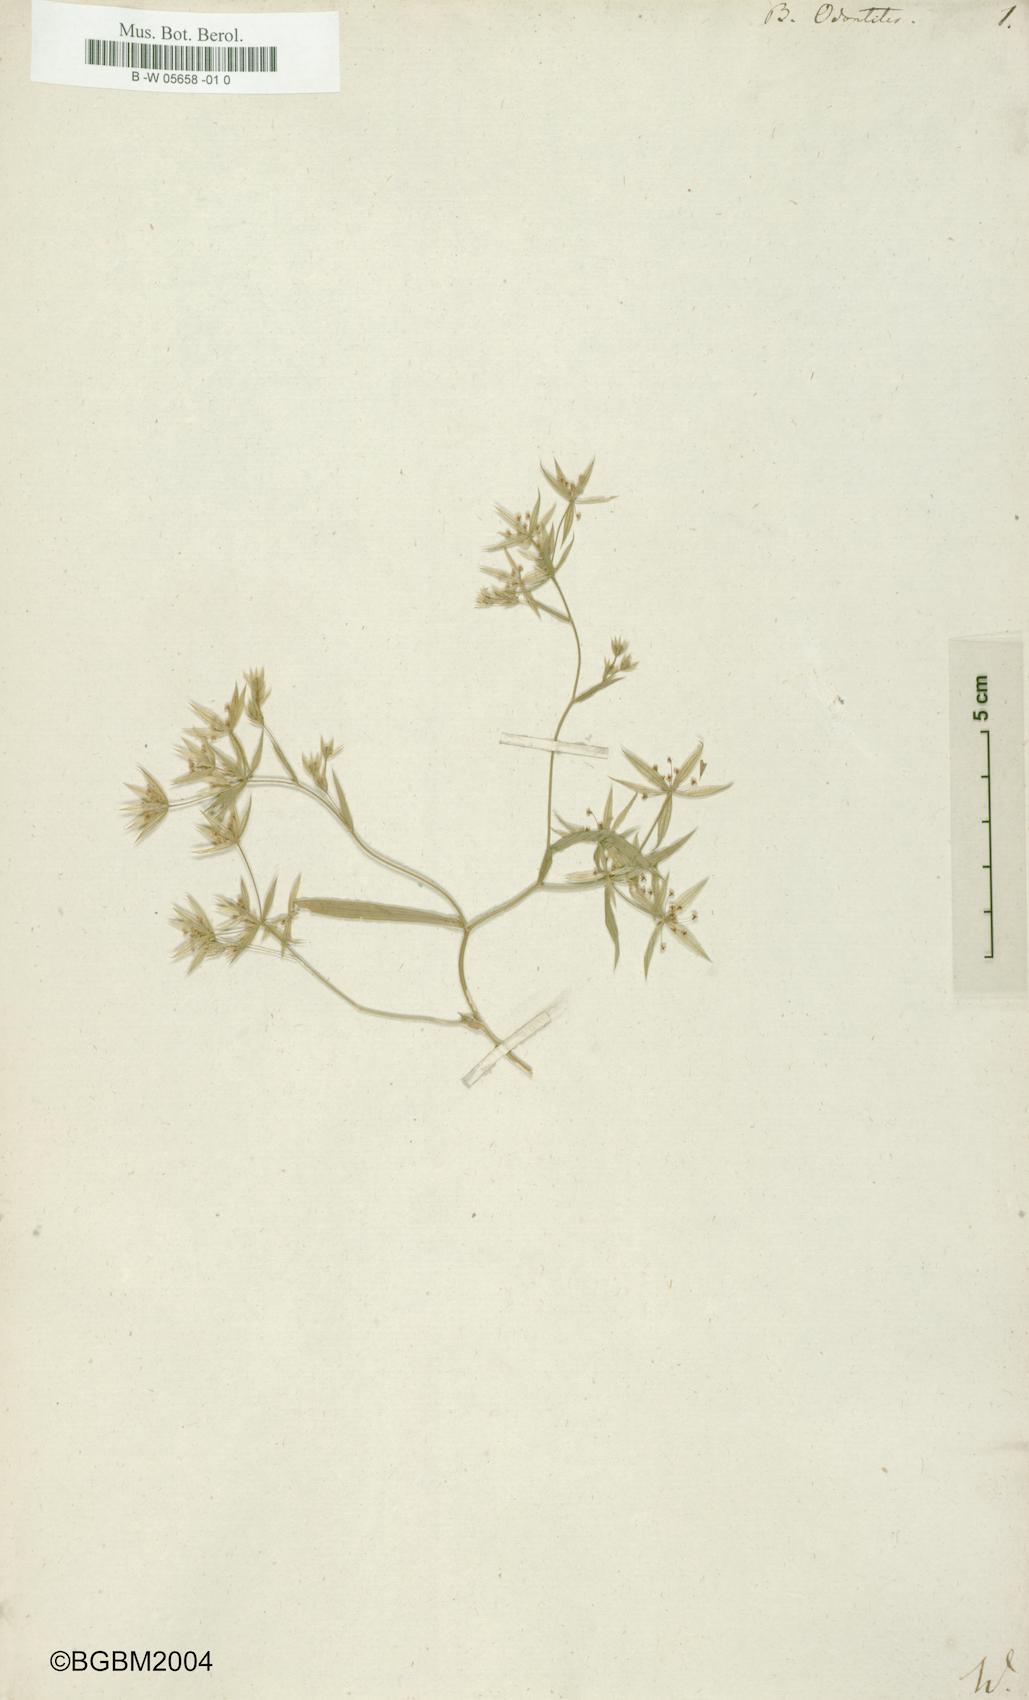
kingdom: Plantae
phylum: Tracheophyta
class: Magnoliopsida
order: Apiales
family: Apiaceae
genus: Bupleurum
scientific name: Bupleurum odontites
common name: Narrowleaf thorow wax
